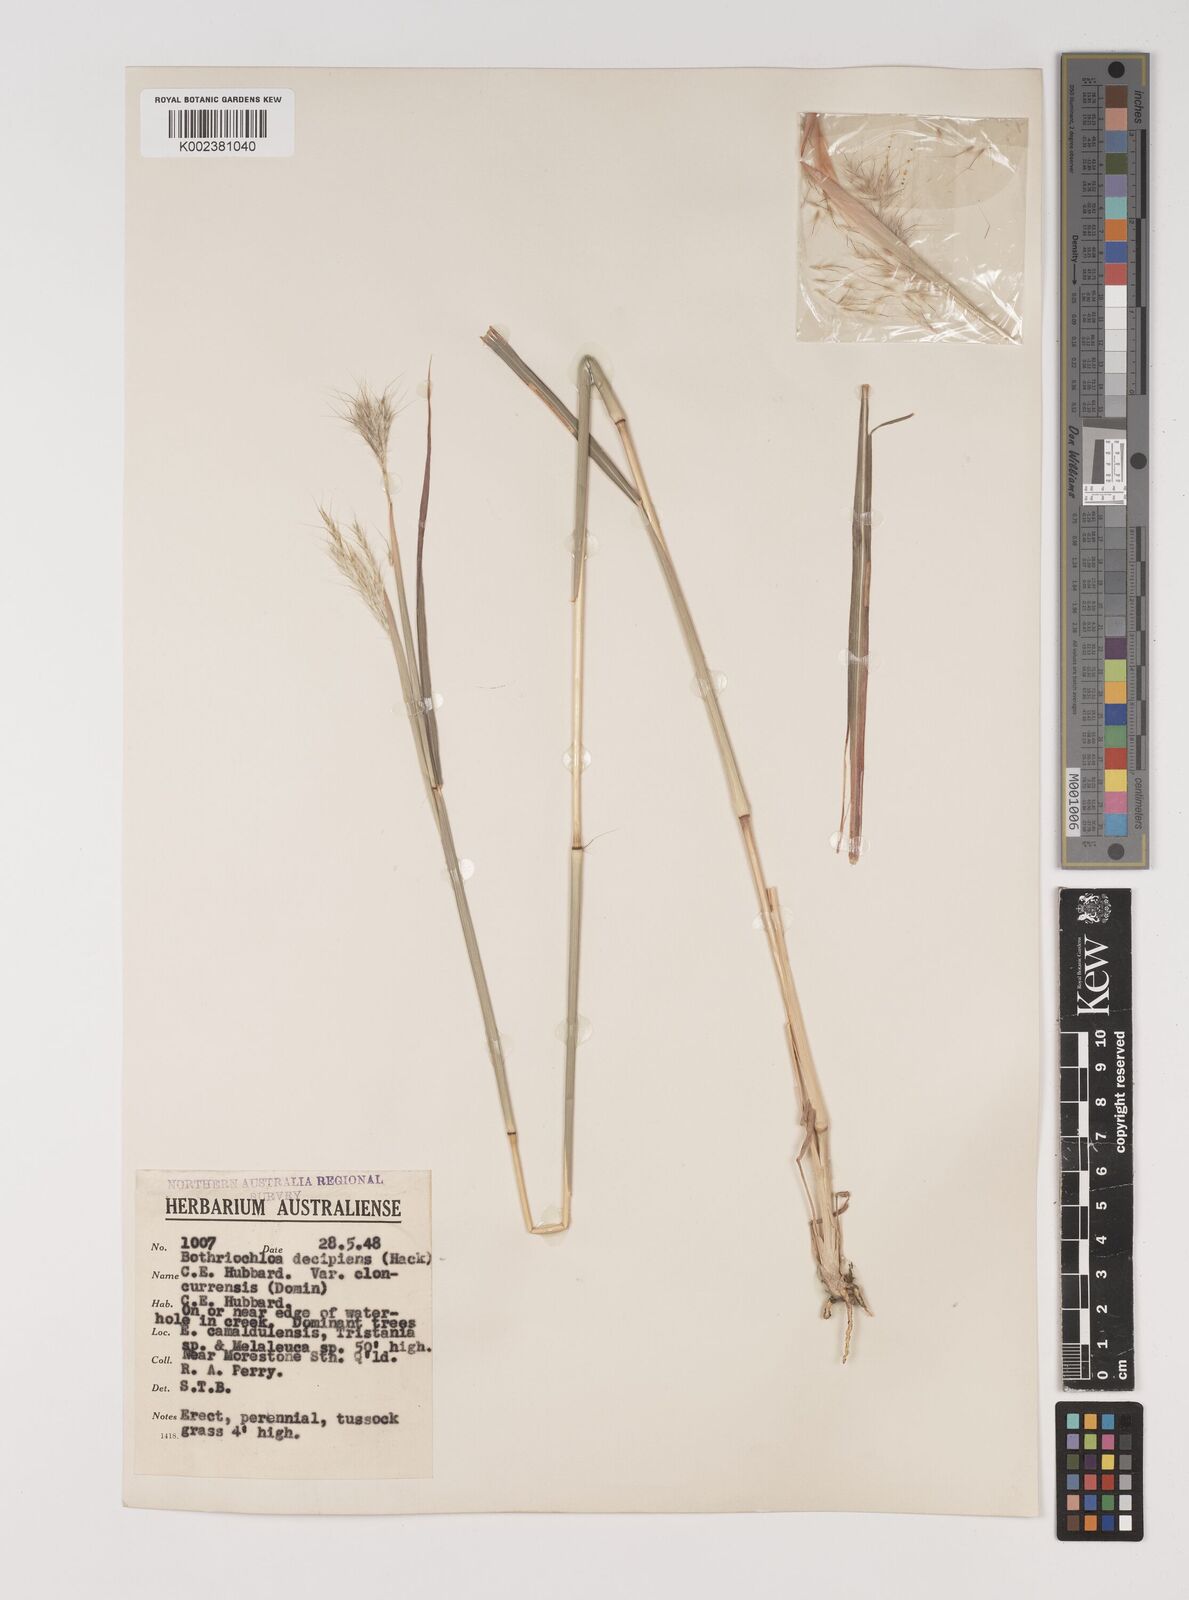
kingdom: Plantae
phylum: Tracheophyta
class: Liliopsida
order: Poales
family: Poaceae
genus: Bothriochloa
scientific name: Bothriochloa decipiens
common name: Pitted-bluegrass
